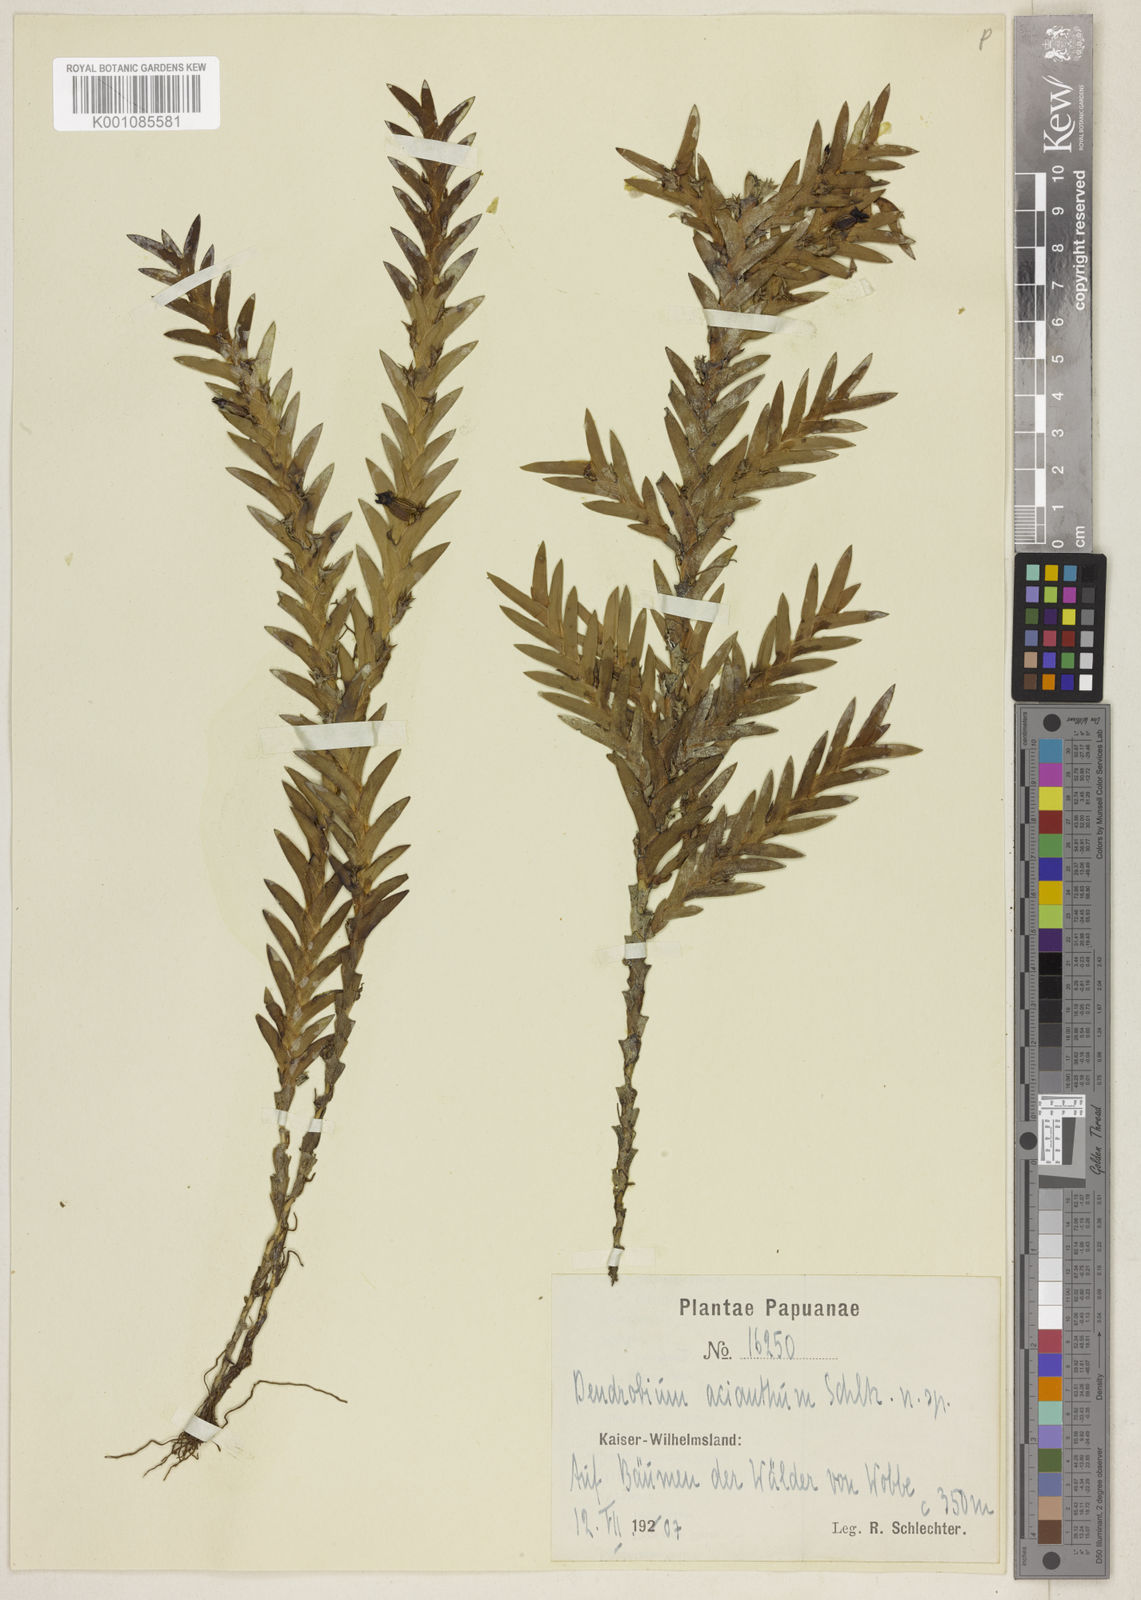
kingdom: Plantae
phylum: Tracheophyta
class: Liliopsida
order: Asparagales
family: Orchidaceae
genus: Oxystophyllum
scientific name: Oxystophyllum govidjoae
